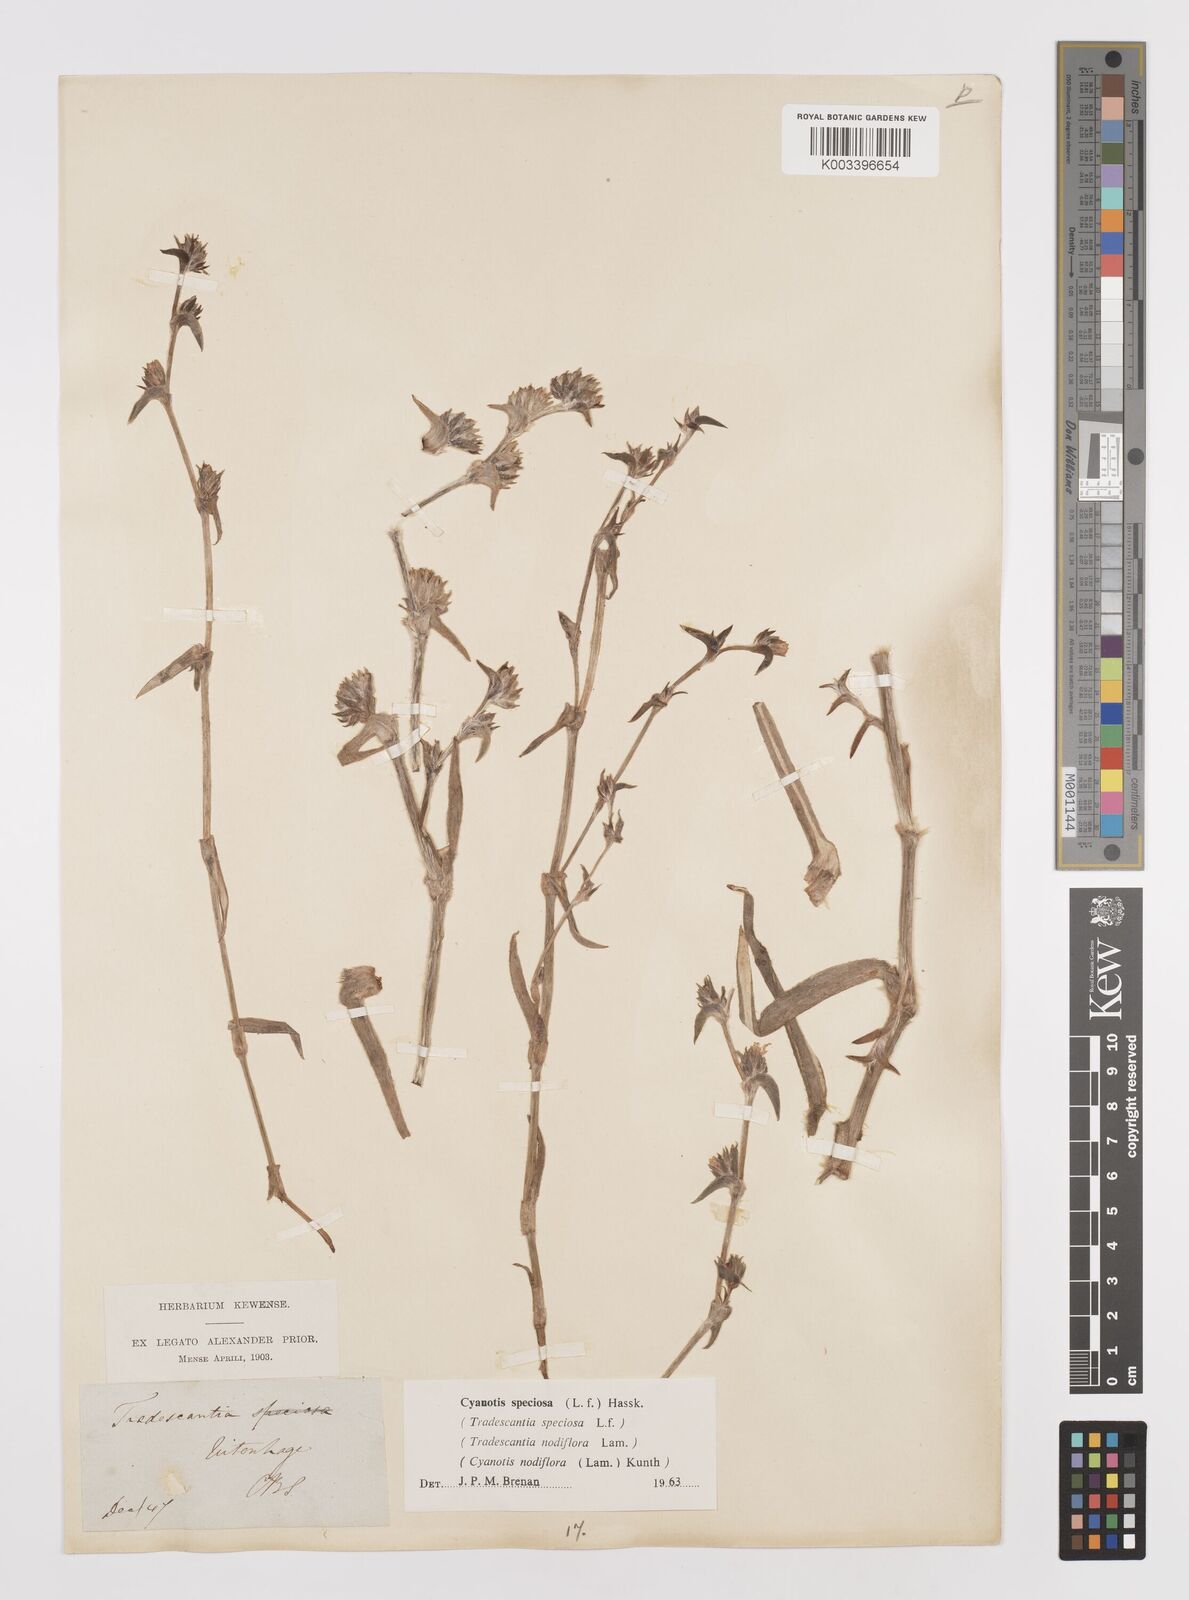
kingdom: Plantae
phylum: Tracheophyta
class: Liliopsida
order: Commelinales
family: Commelinaceae
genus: Cyanotis
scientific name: Cyanotis speciosa
